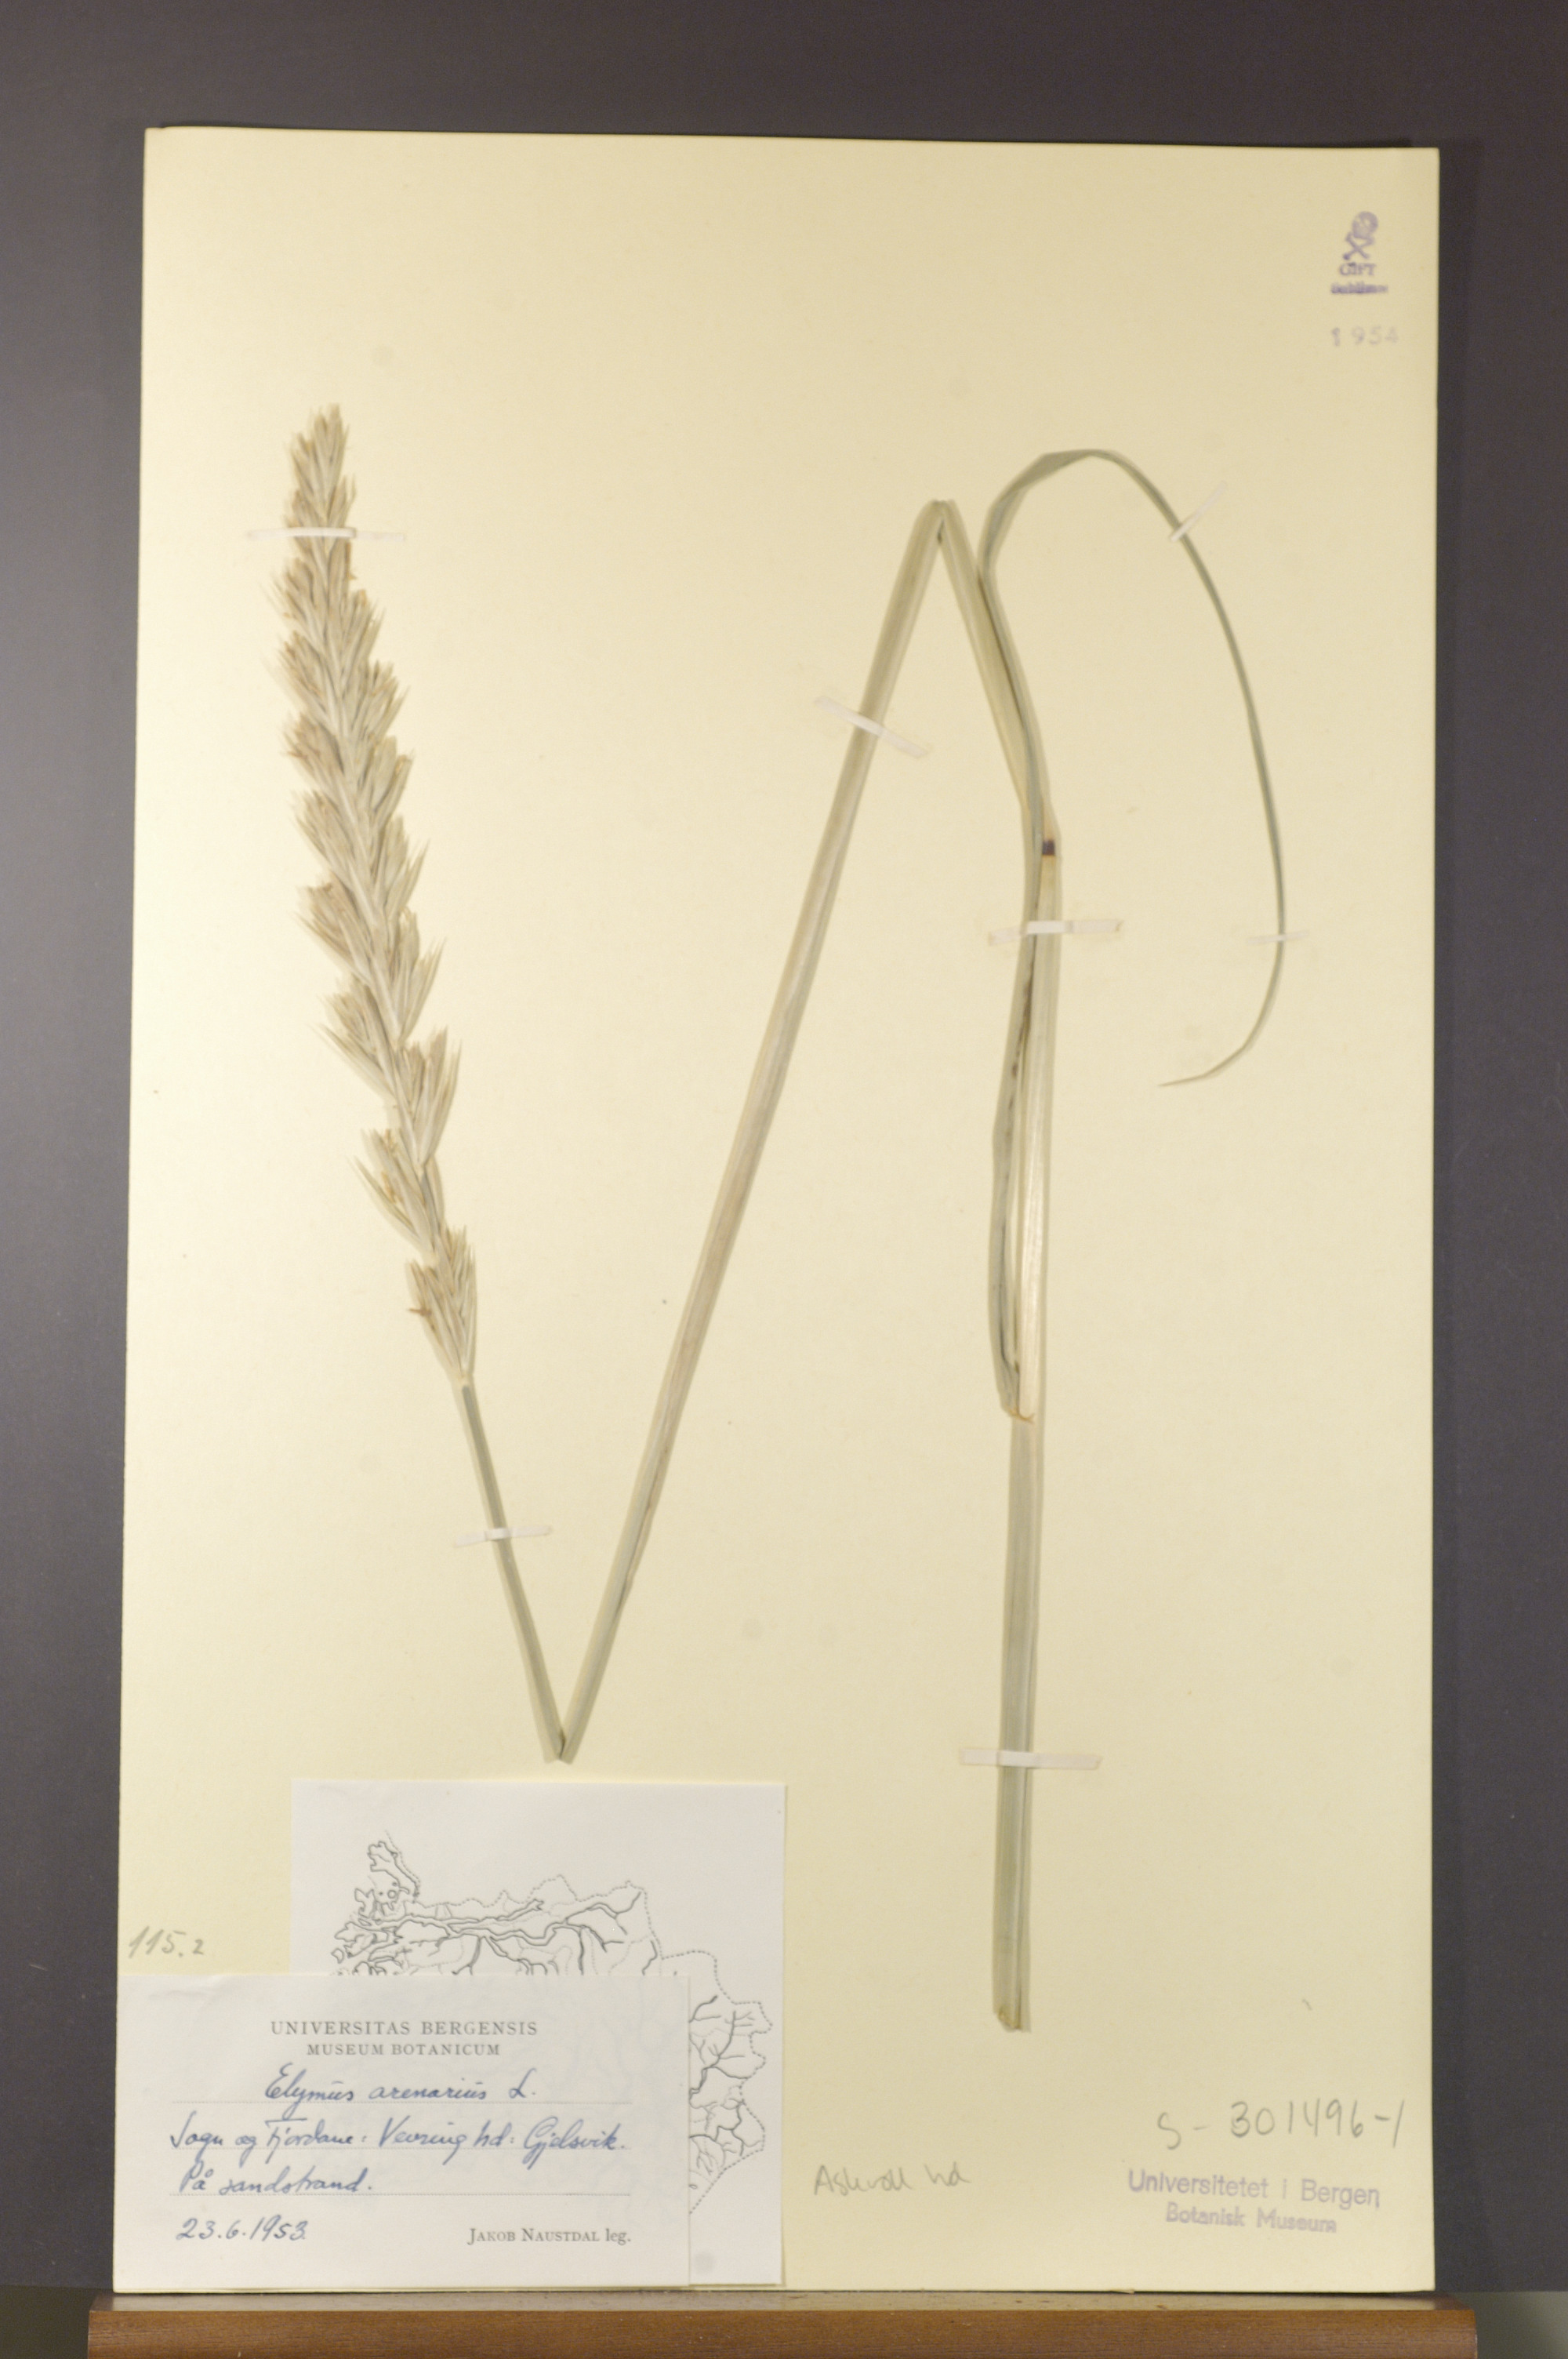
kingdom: Plantae
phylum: Tracheophyta
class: Liliopsida
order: Poales
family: Poaceae
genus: Leymus
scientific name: Leymus arenarius
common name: Lyme-grass
